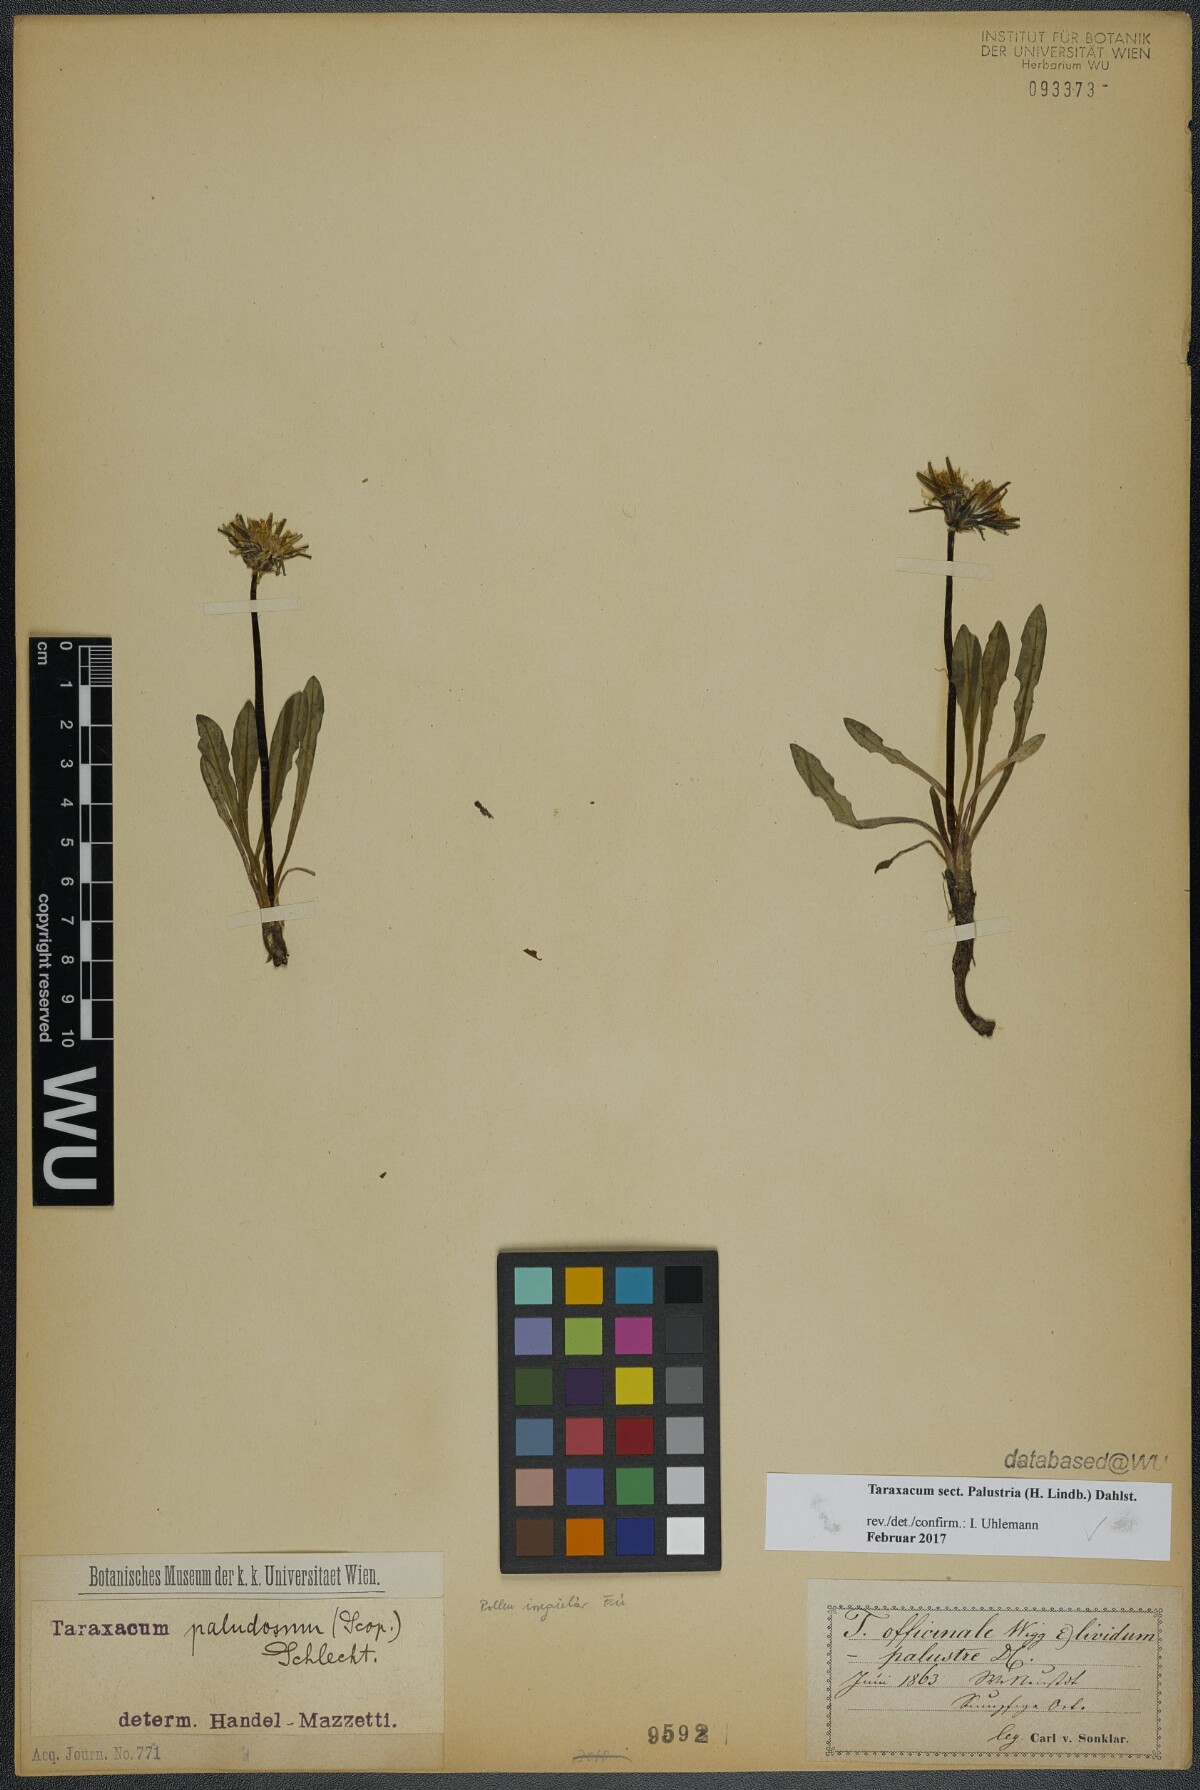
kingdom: Plantae
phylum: Tracheophyta
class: Magnoliopsida
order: Asterales
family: Asteraceae
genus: Taraxacum
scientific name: Taraxacum
